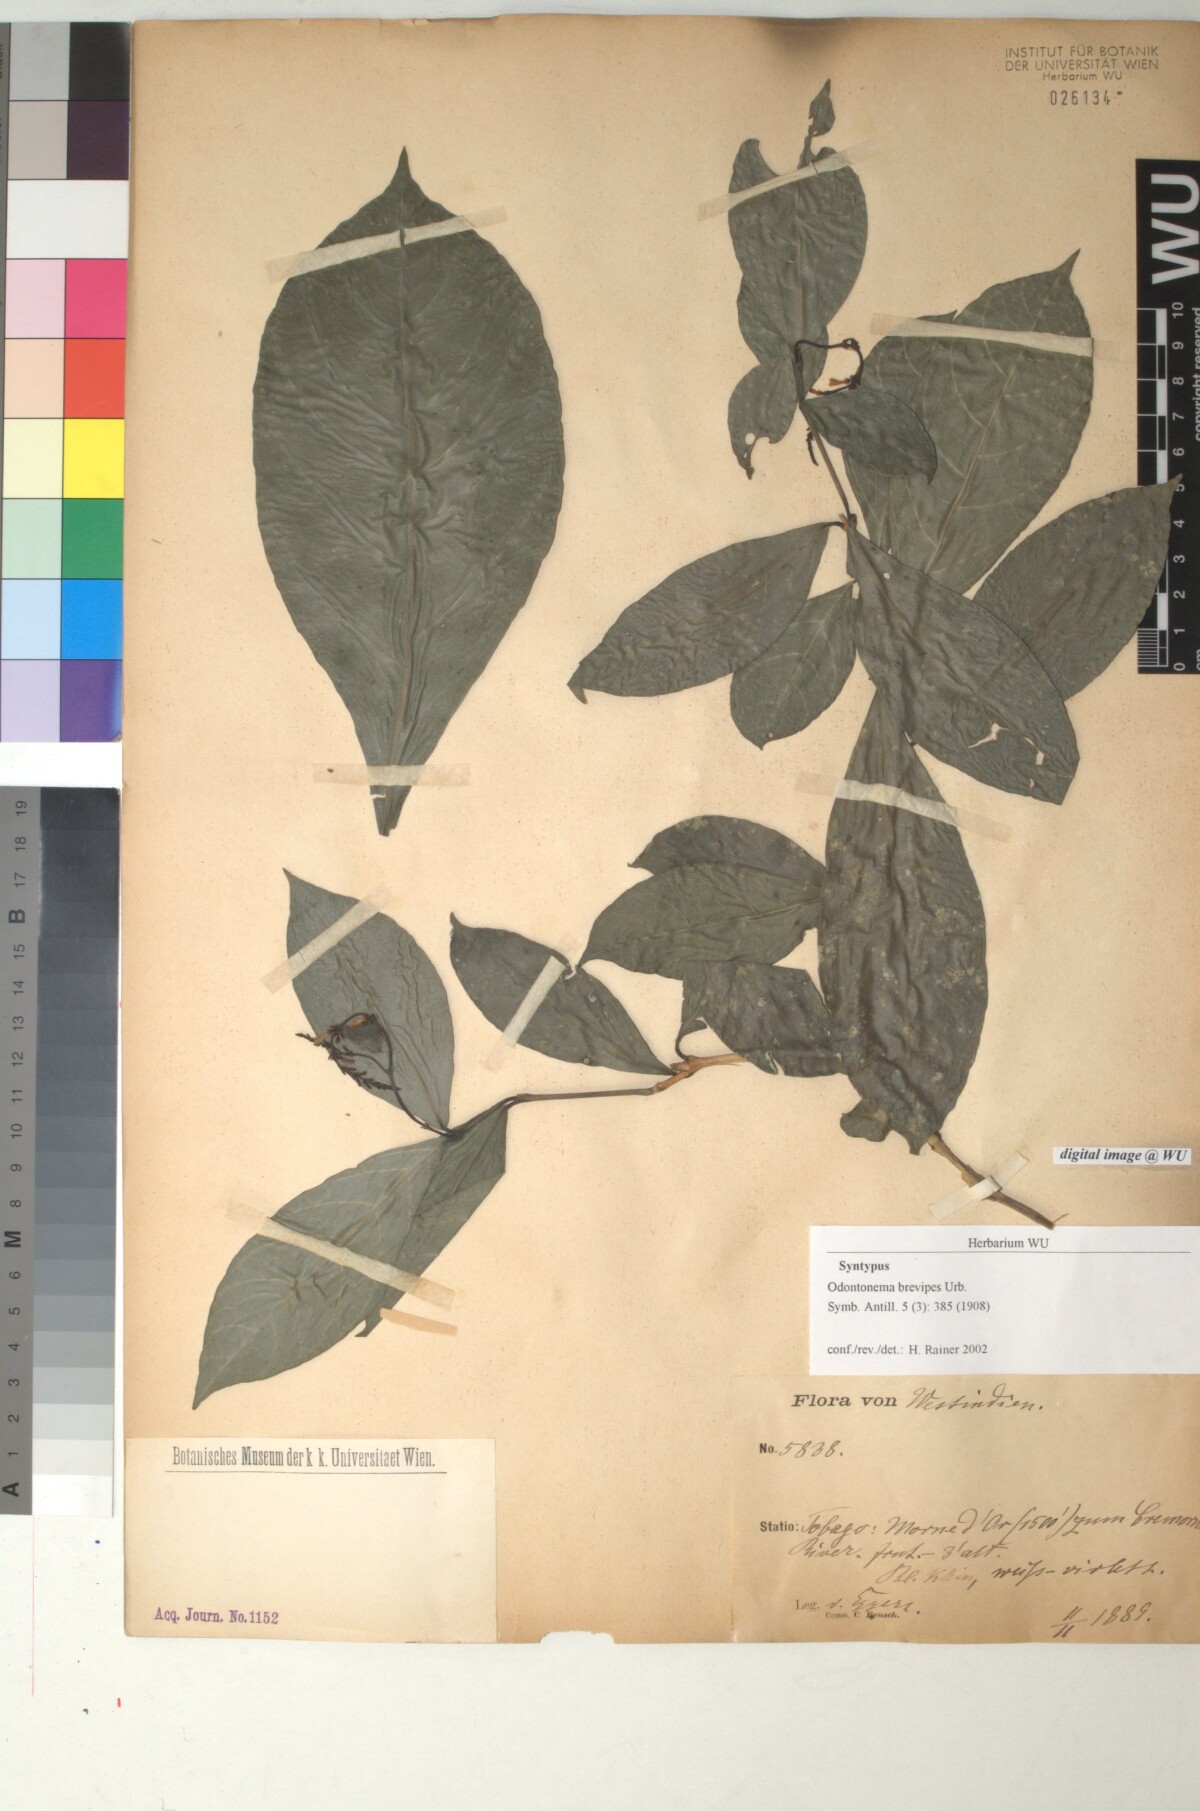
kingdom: Plantae
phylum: Tracheophyta
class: Magnoliopsida
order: Lamiales
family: Acanthaceae
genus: Odontonema
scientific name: Odontonema brevipes
